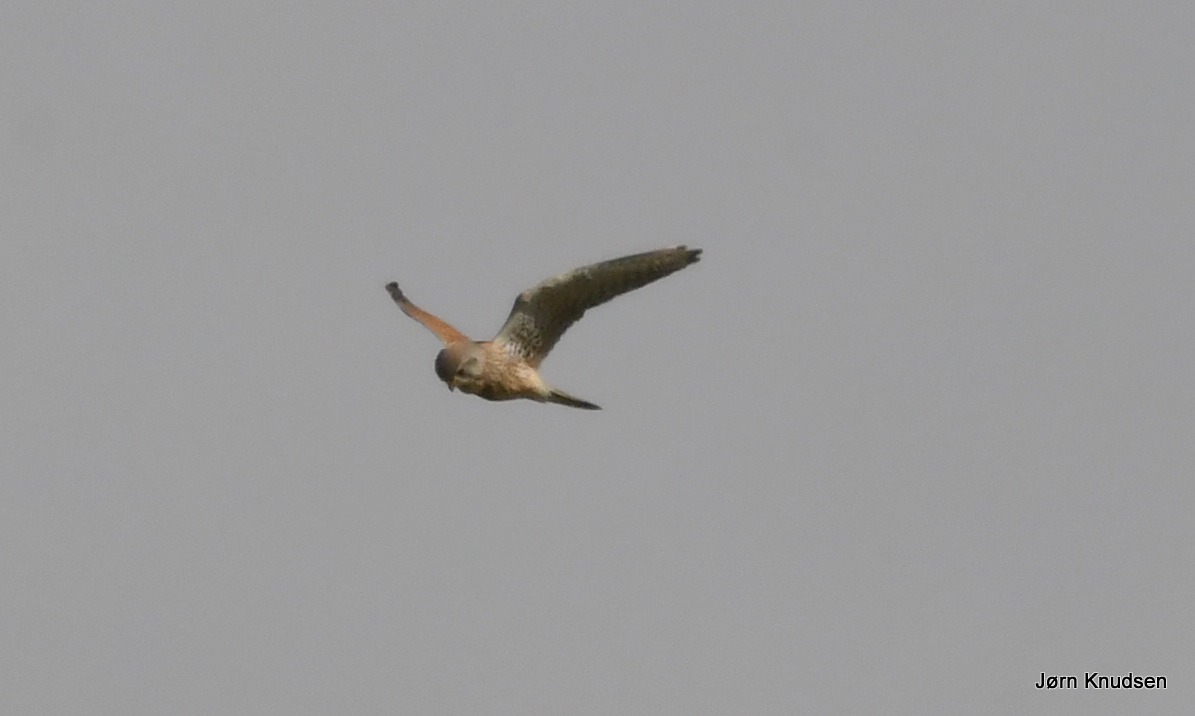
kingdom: Animalia
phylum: Chordata
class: Aves
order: Falconiformes
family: Falconidae
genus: Falco
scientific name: Falco tinnunculus
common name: Tårnfalk
